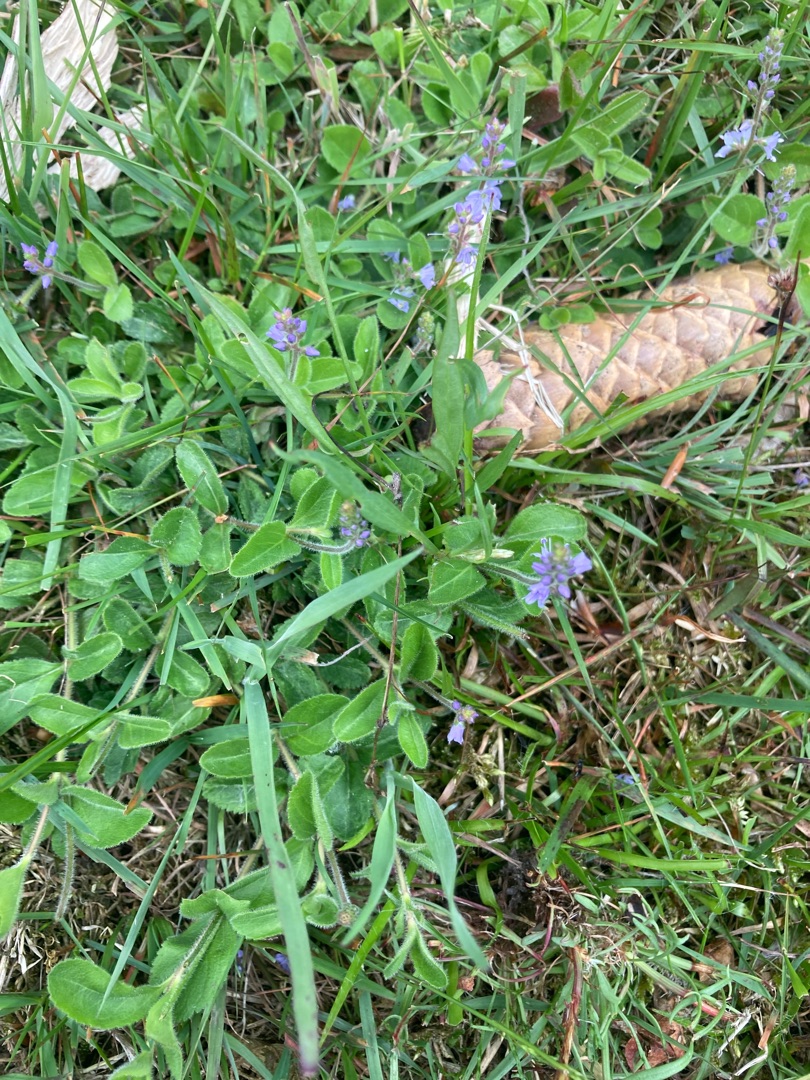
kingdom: Plantae
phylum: Tracheophyta
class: Magnoliopsida
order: Lamiales
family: Plantaginaceae
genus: Veronica
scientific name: Veronica officinalis
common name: Læge-ærenpris
